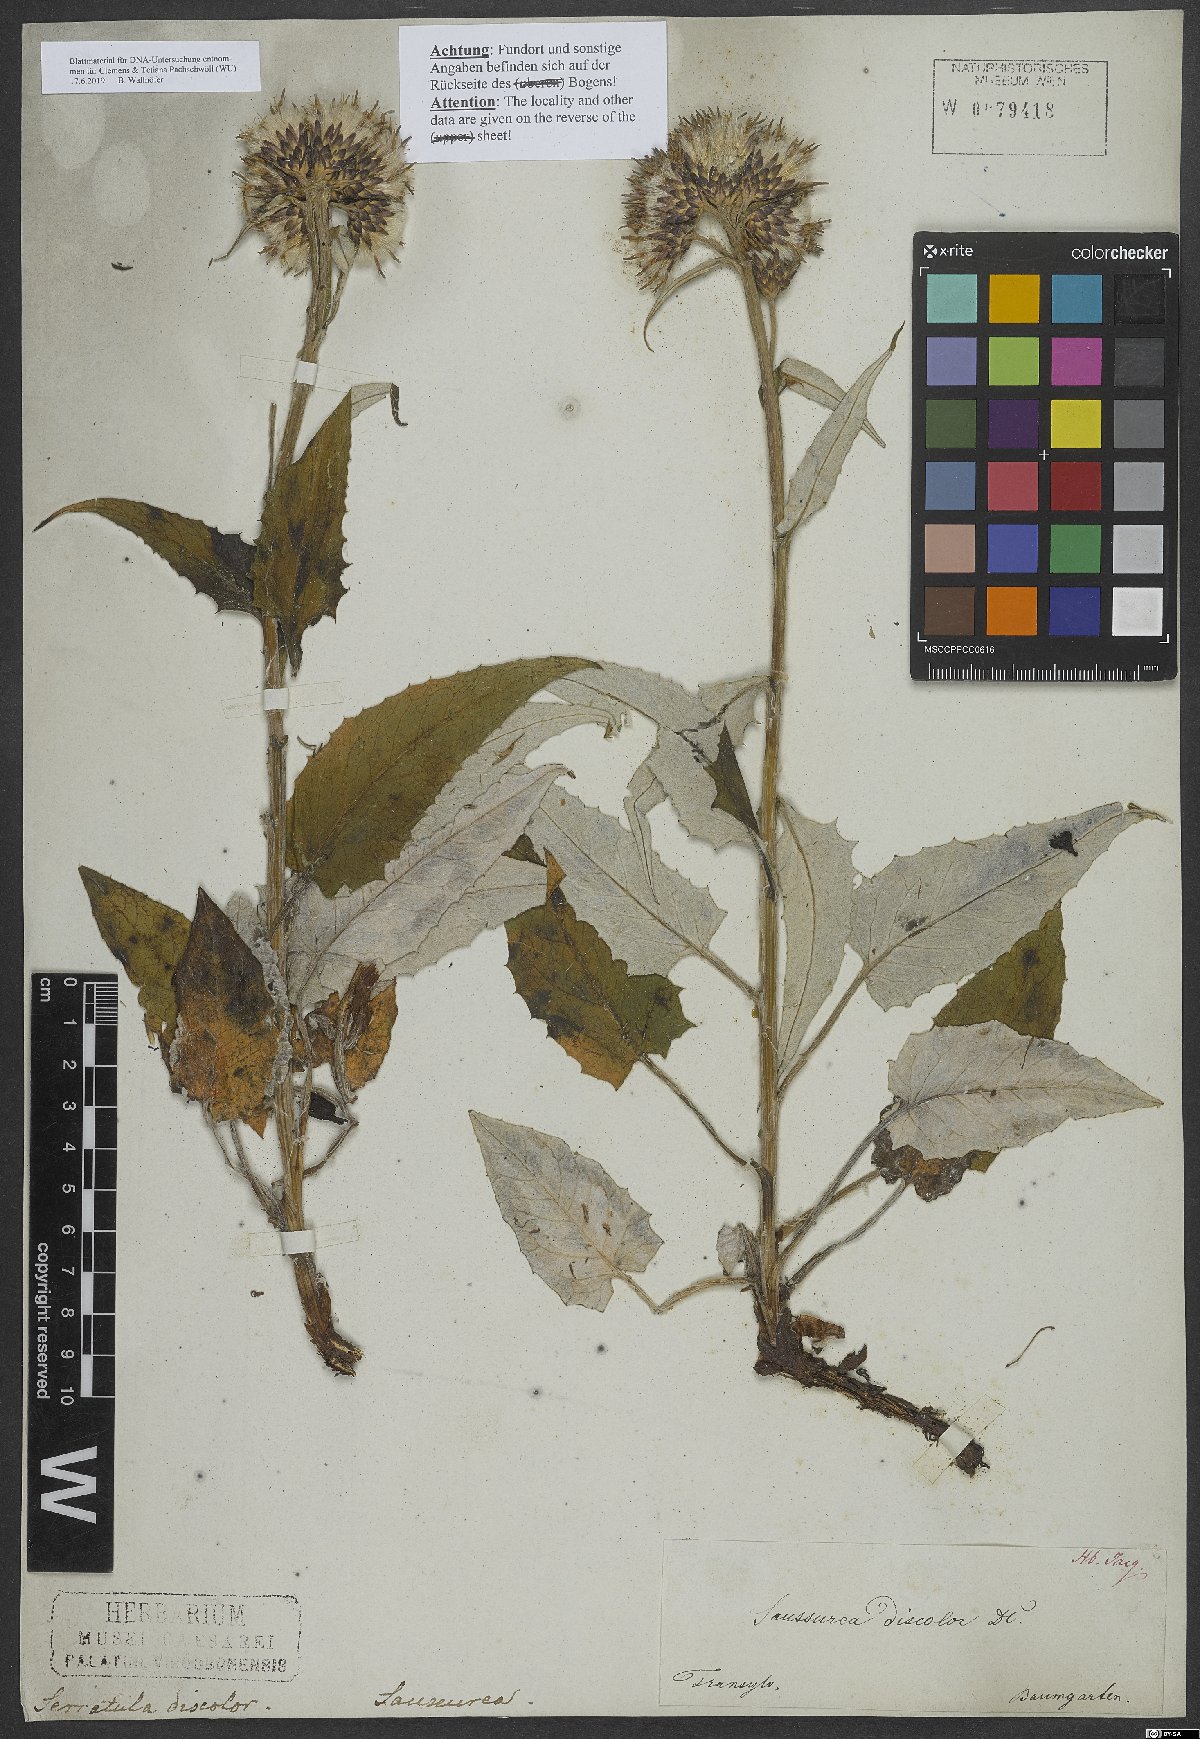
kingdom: Plantae
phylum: Tracheophyta
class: Magnoliopsida
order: Asterales
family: Asteraceae
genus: Saussurea
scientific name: Saussurea discolor
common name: Heart-leaved saussurea
